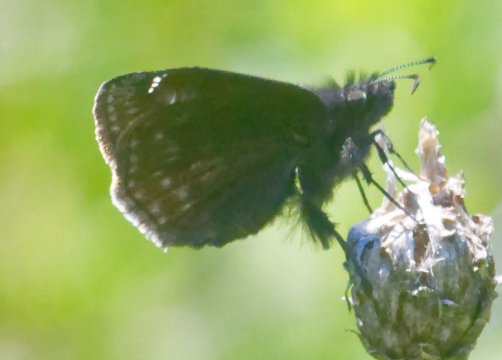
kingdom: Animalia
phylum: Arthropoda
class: Insecta
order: Lepidoptera
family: Hesperiidae
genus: Gesta
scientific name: Gesta
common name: Wild Indigo Duskywing
